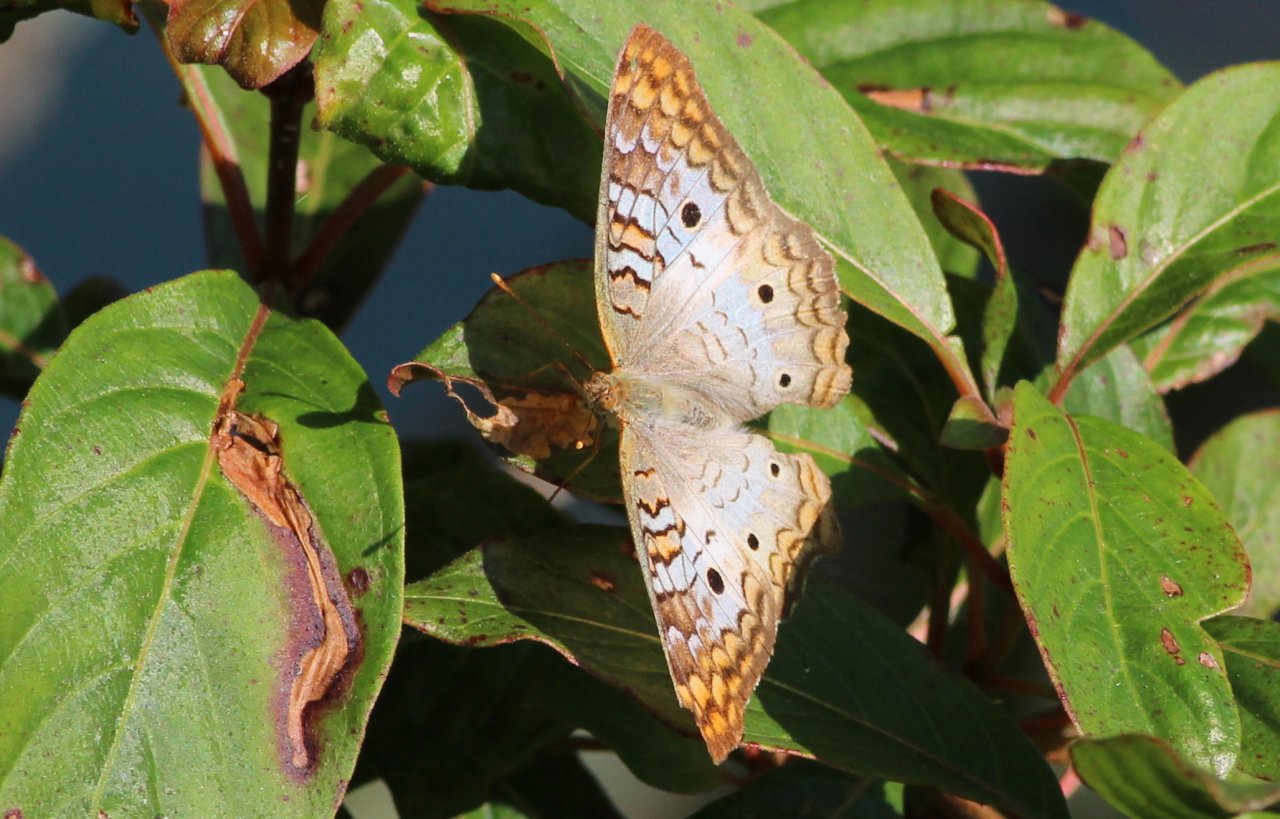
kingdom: Animalia
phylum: Arthropoda
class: Insecta
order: Lepidoptera
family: Nymphalidae
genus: Anartia
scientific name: Anartia jatrophae
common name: White Peacock
